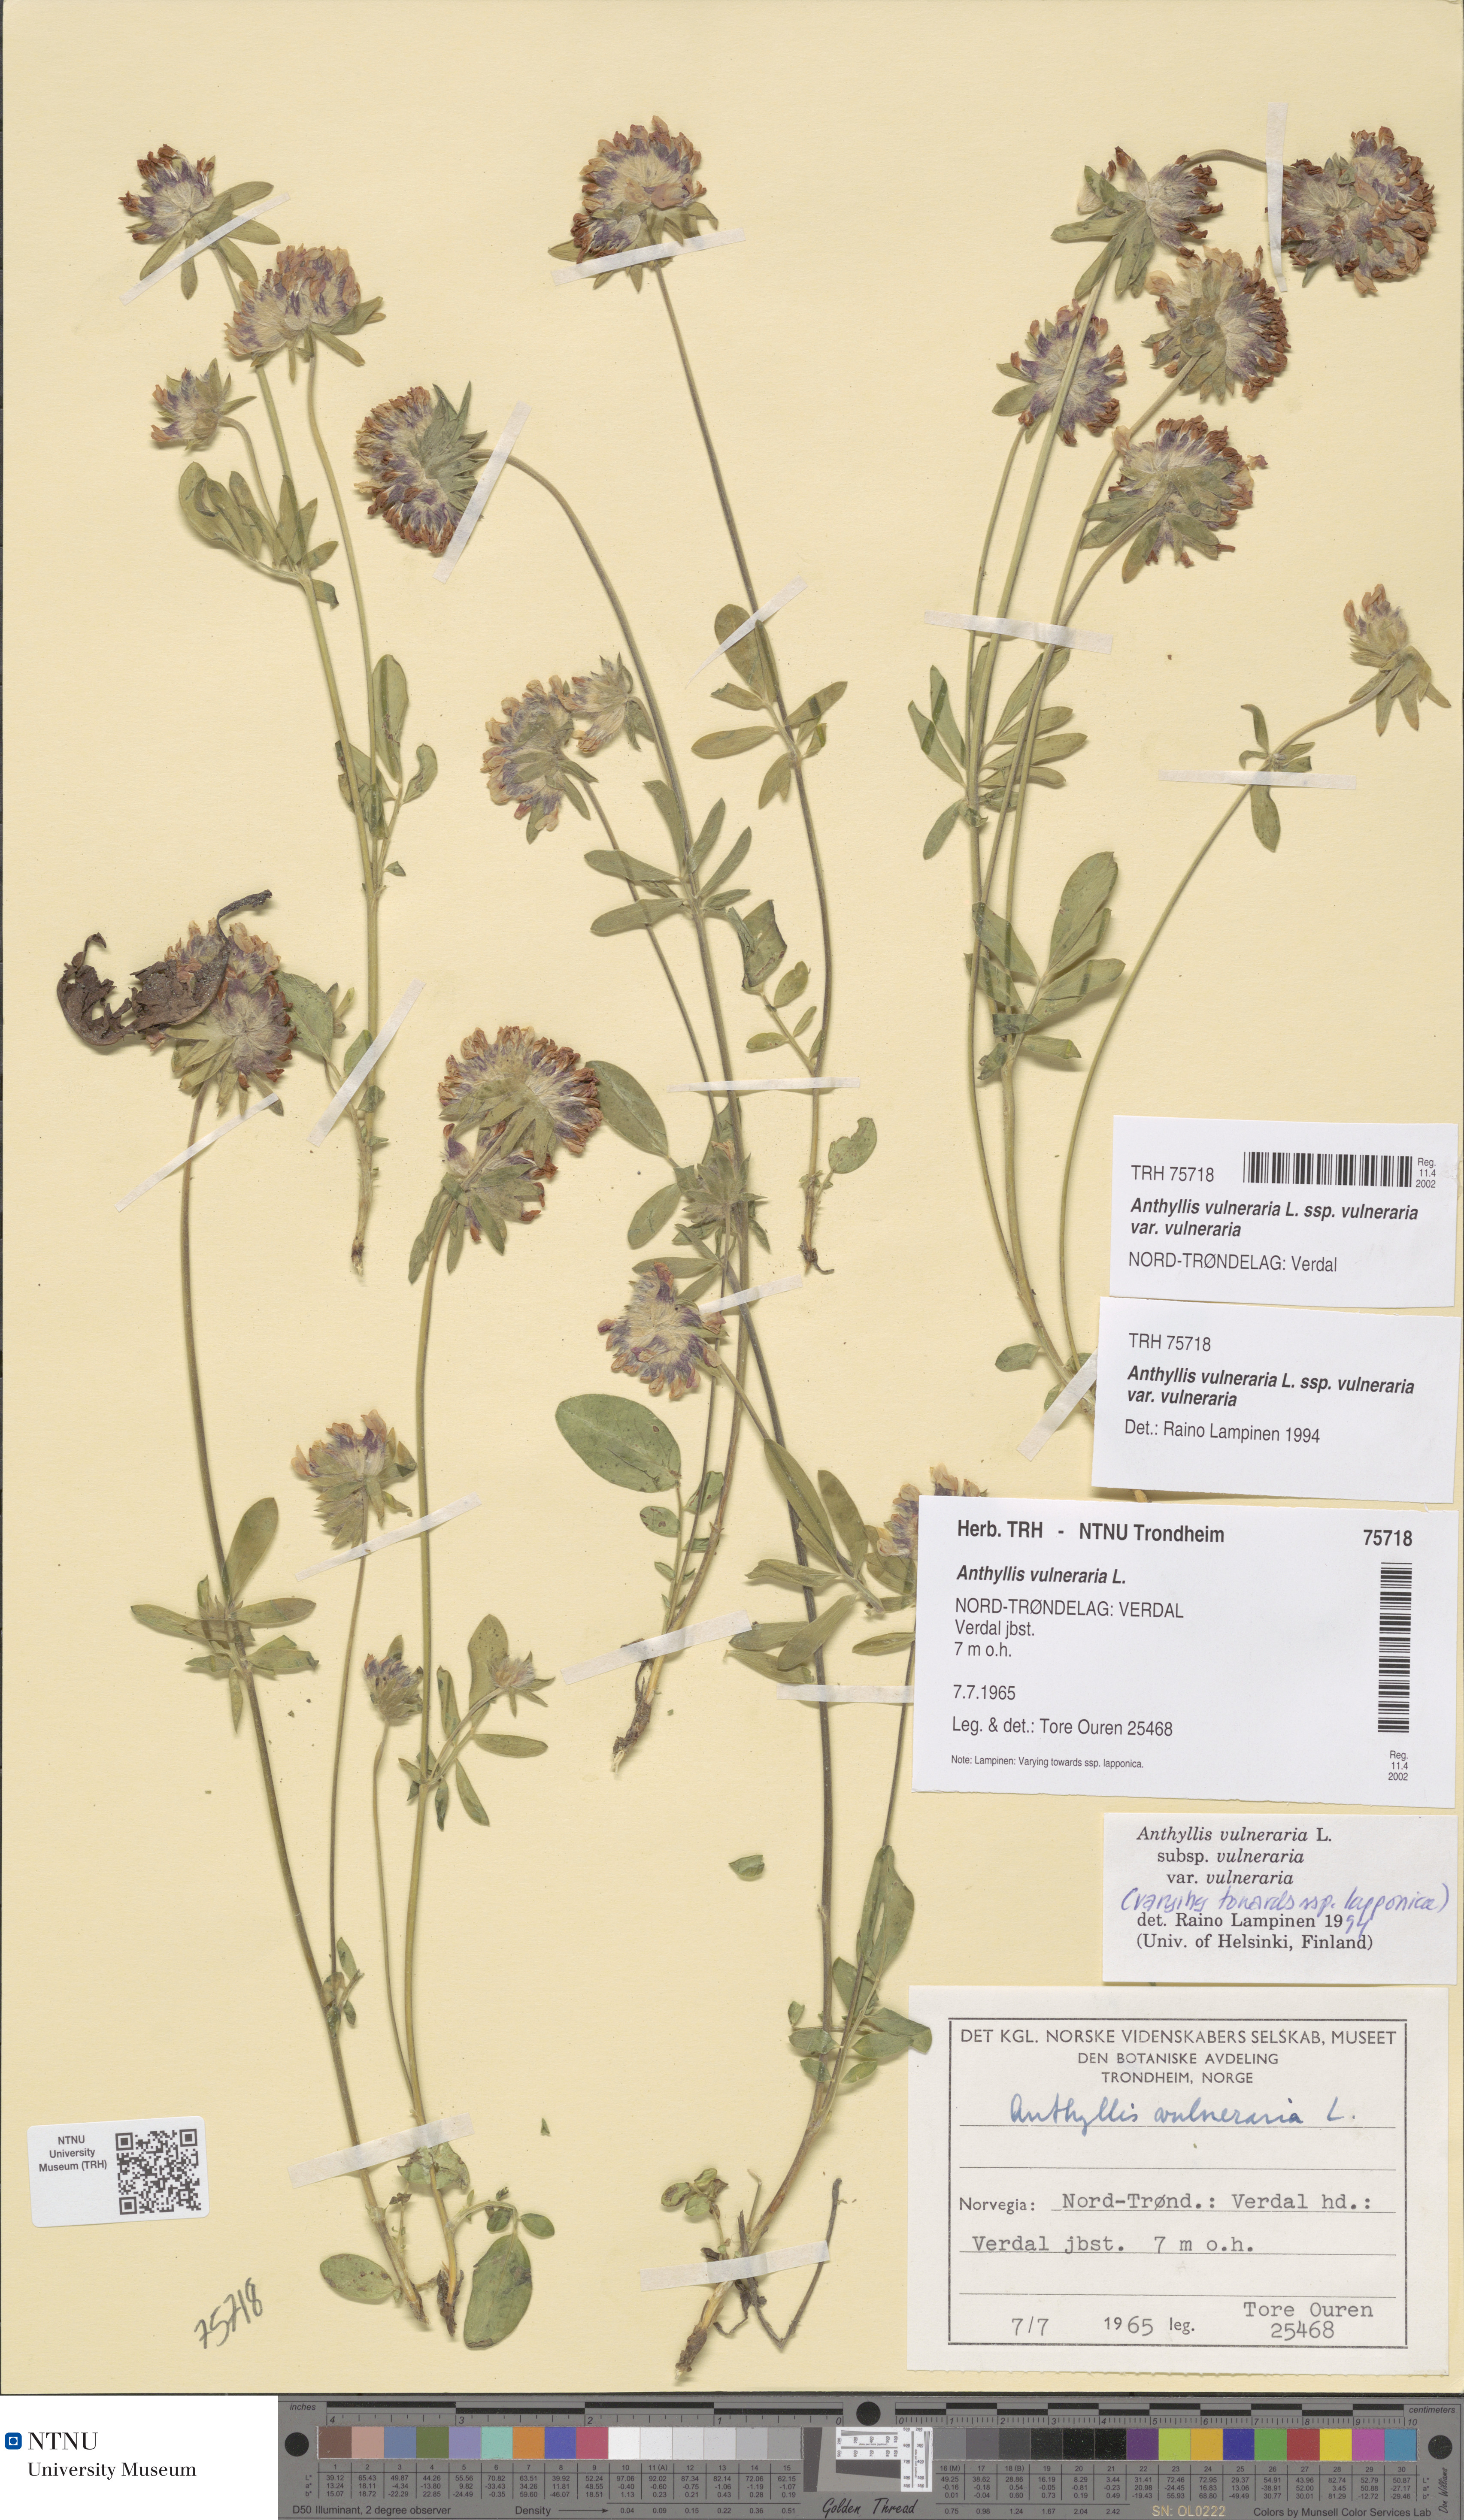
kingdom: Plantae
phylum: Tracheophyta
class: Magnoliopsida
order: Fabales
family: Fabaceae
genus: Anthyllis
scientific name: Anthyllis vulneraria
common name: Kidney vetch
